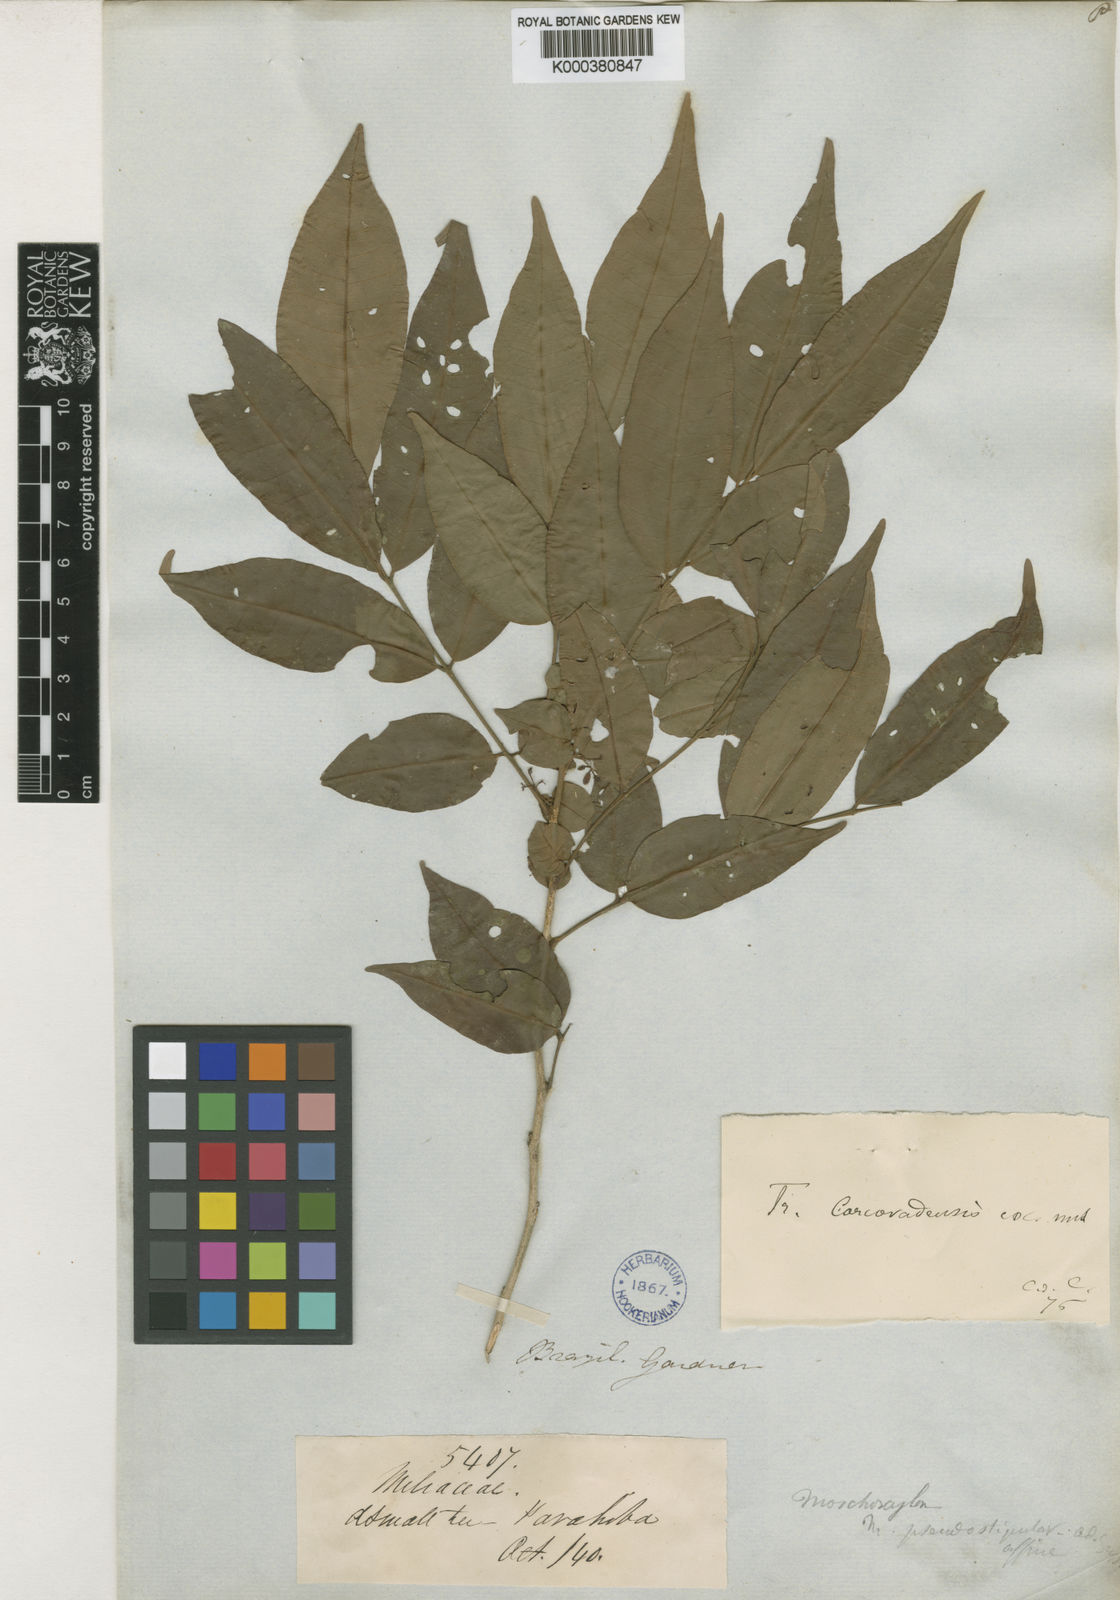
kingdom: Plantae
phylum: Tracheophyta
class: Magnoliopsida
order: Sapindales
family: Meliaceae
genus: Trichilia
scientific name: Trichilia pseudostipularis
